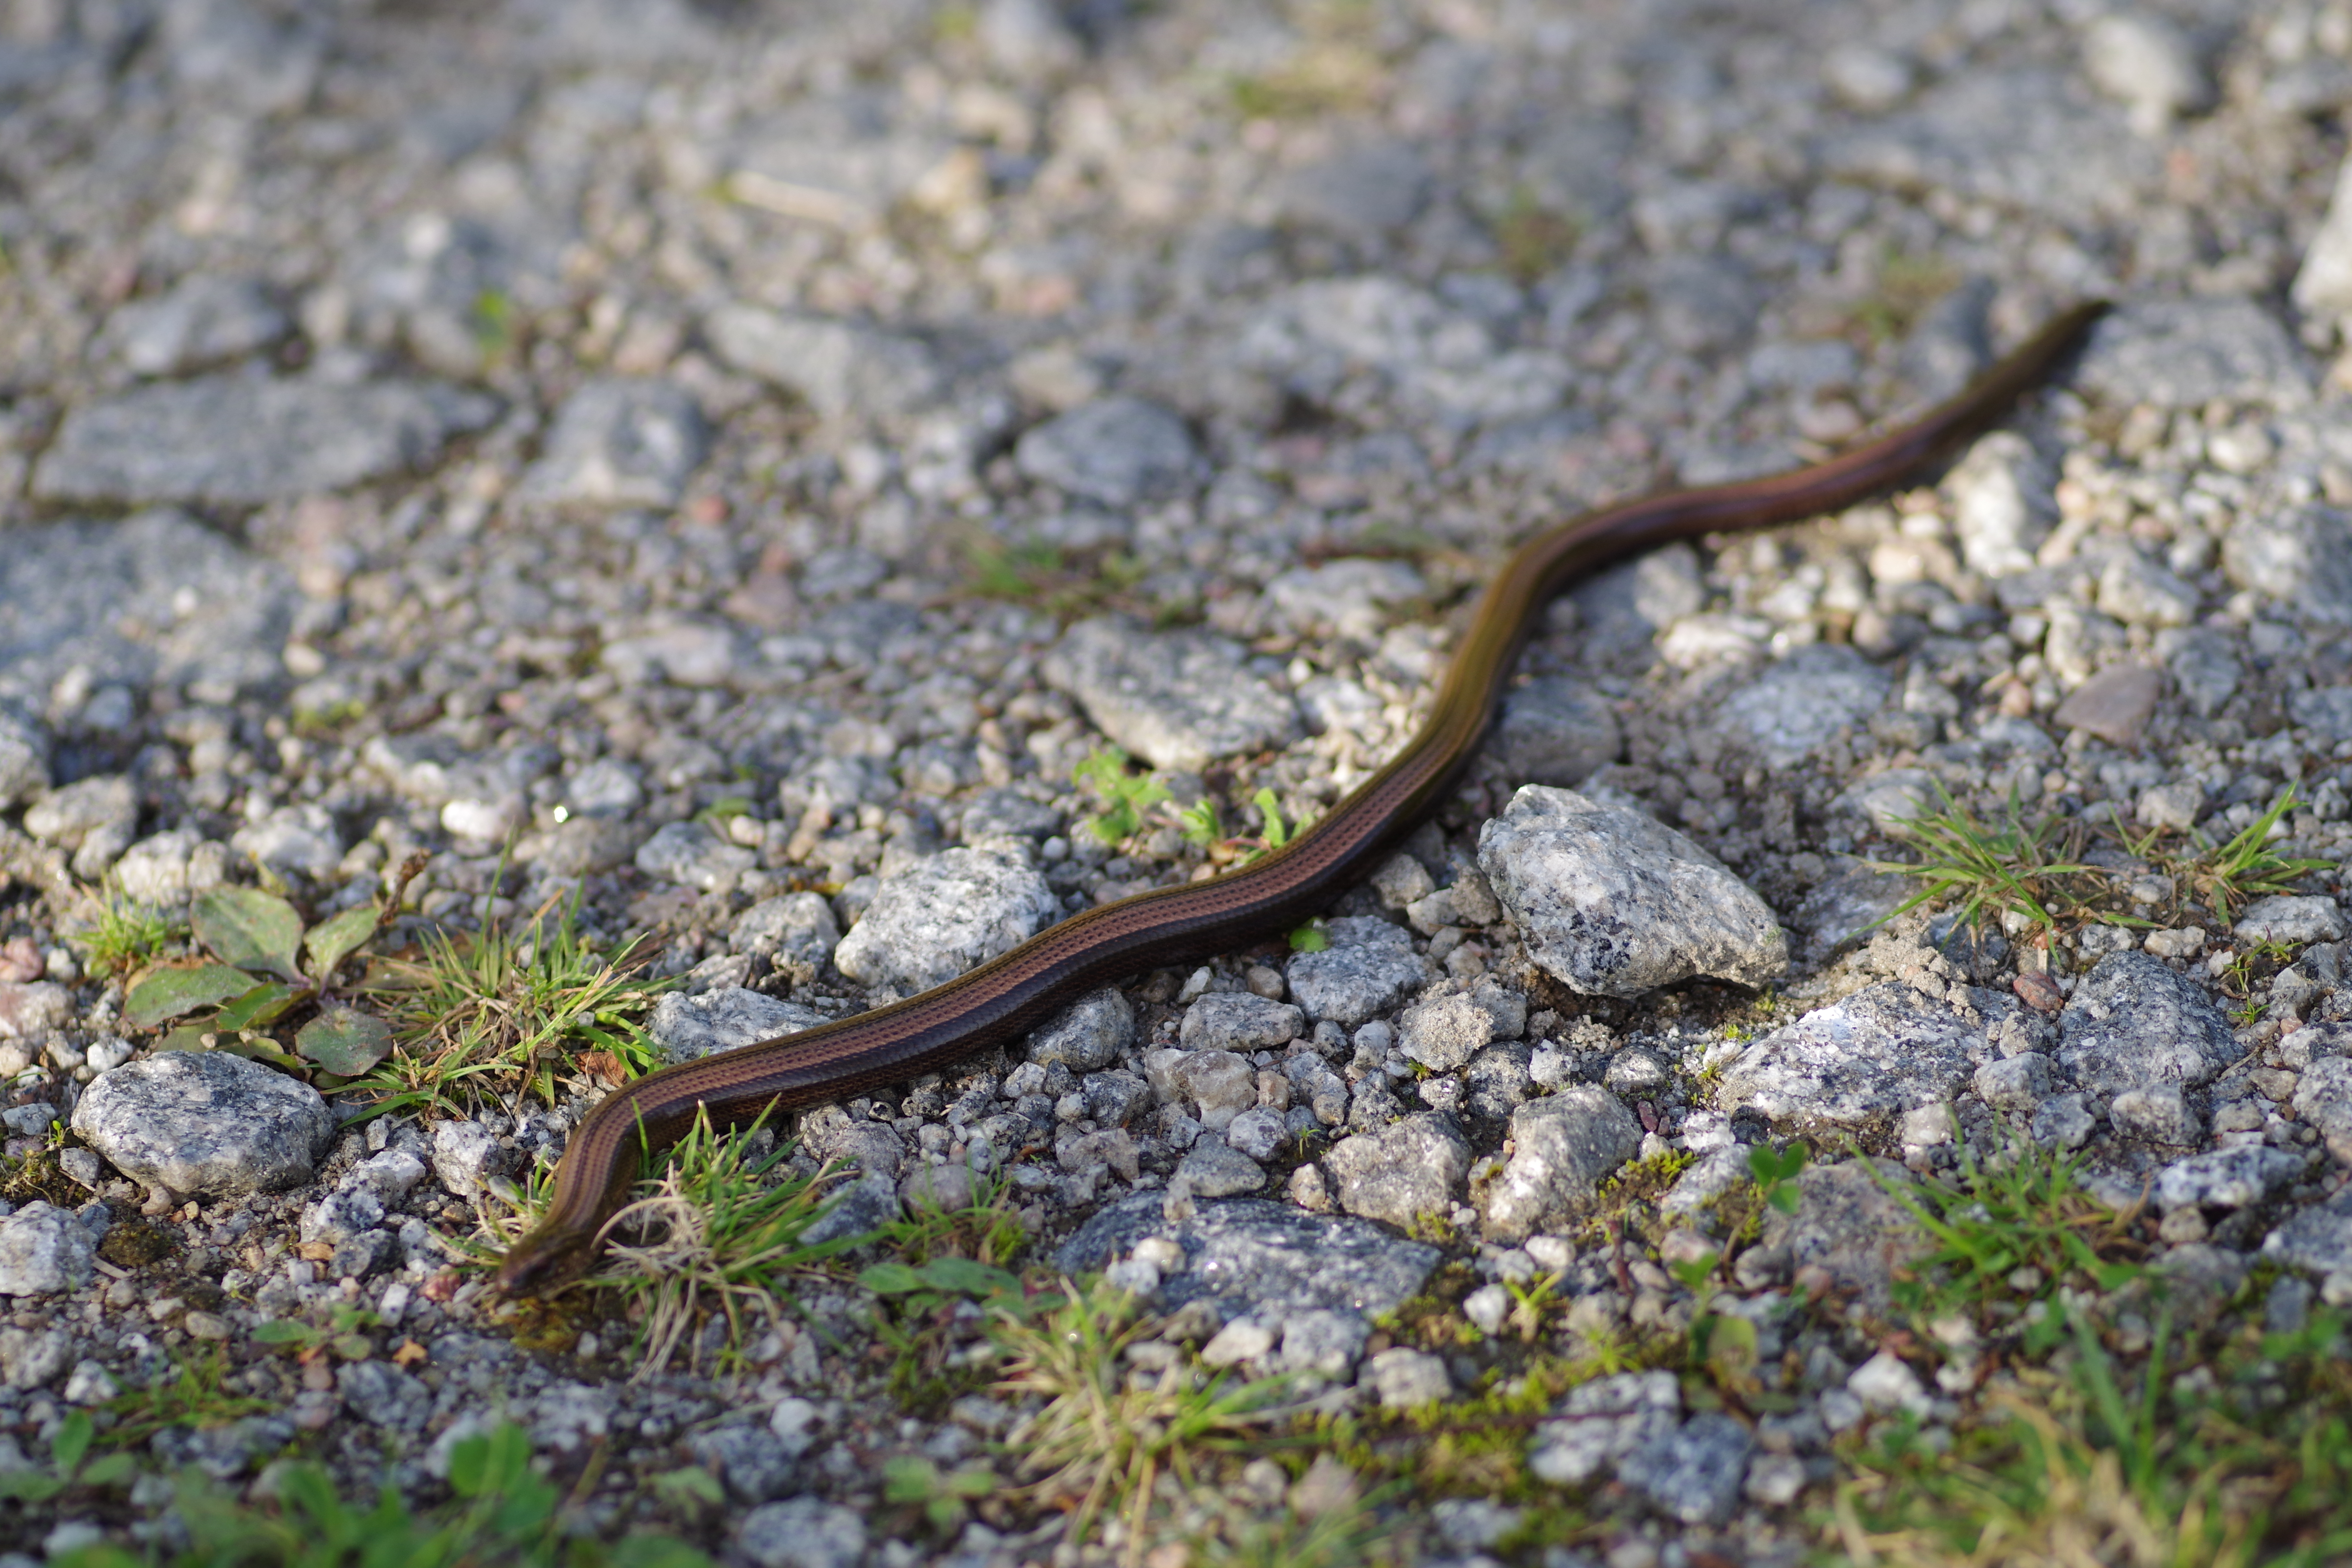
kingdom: Animalia
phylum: Chordata
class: Squamata
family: Anguidae
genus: Anguis
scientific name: Anguis colchica
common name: Slow worm
